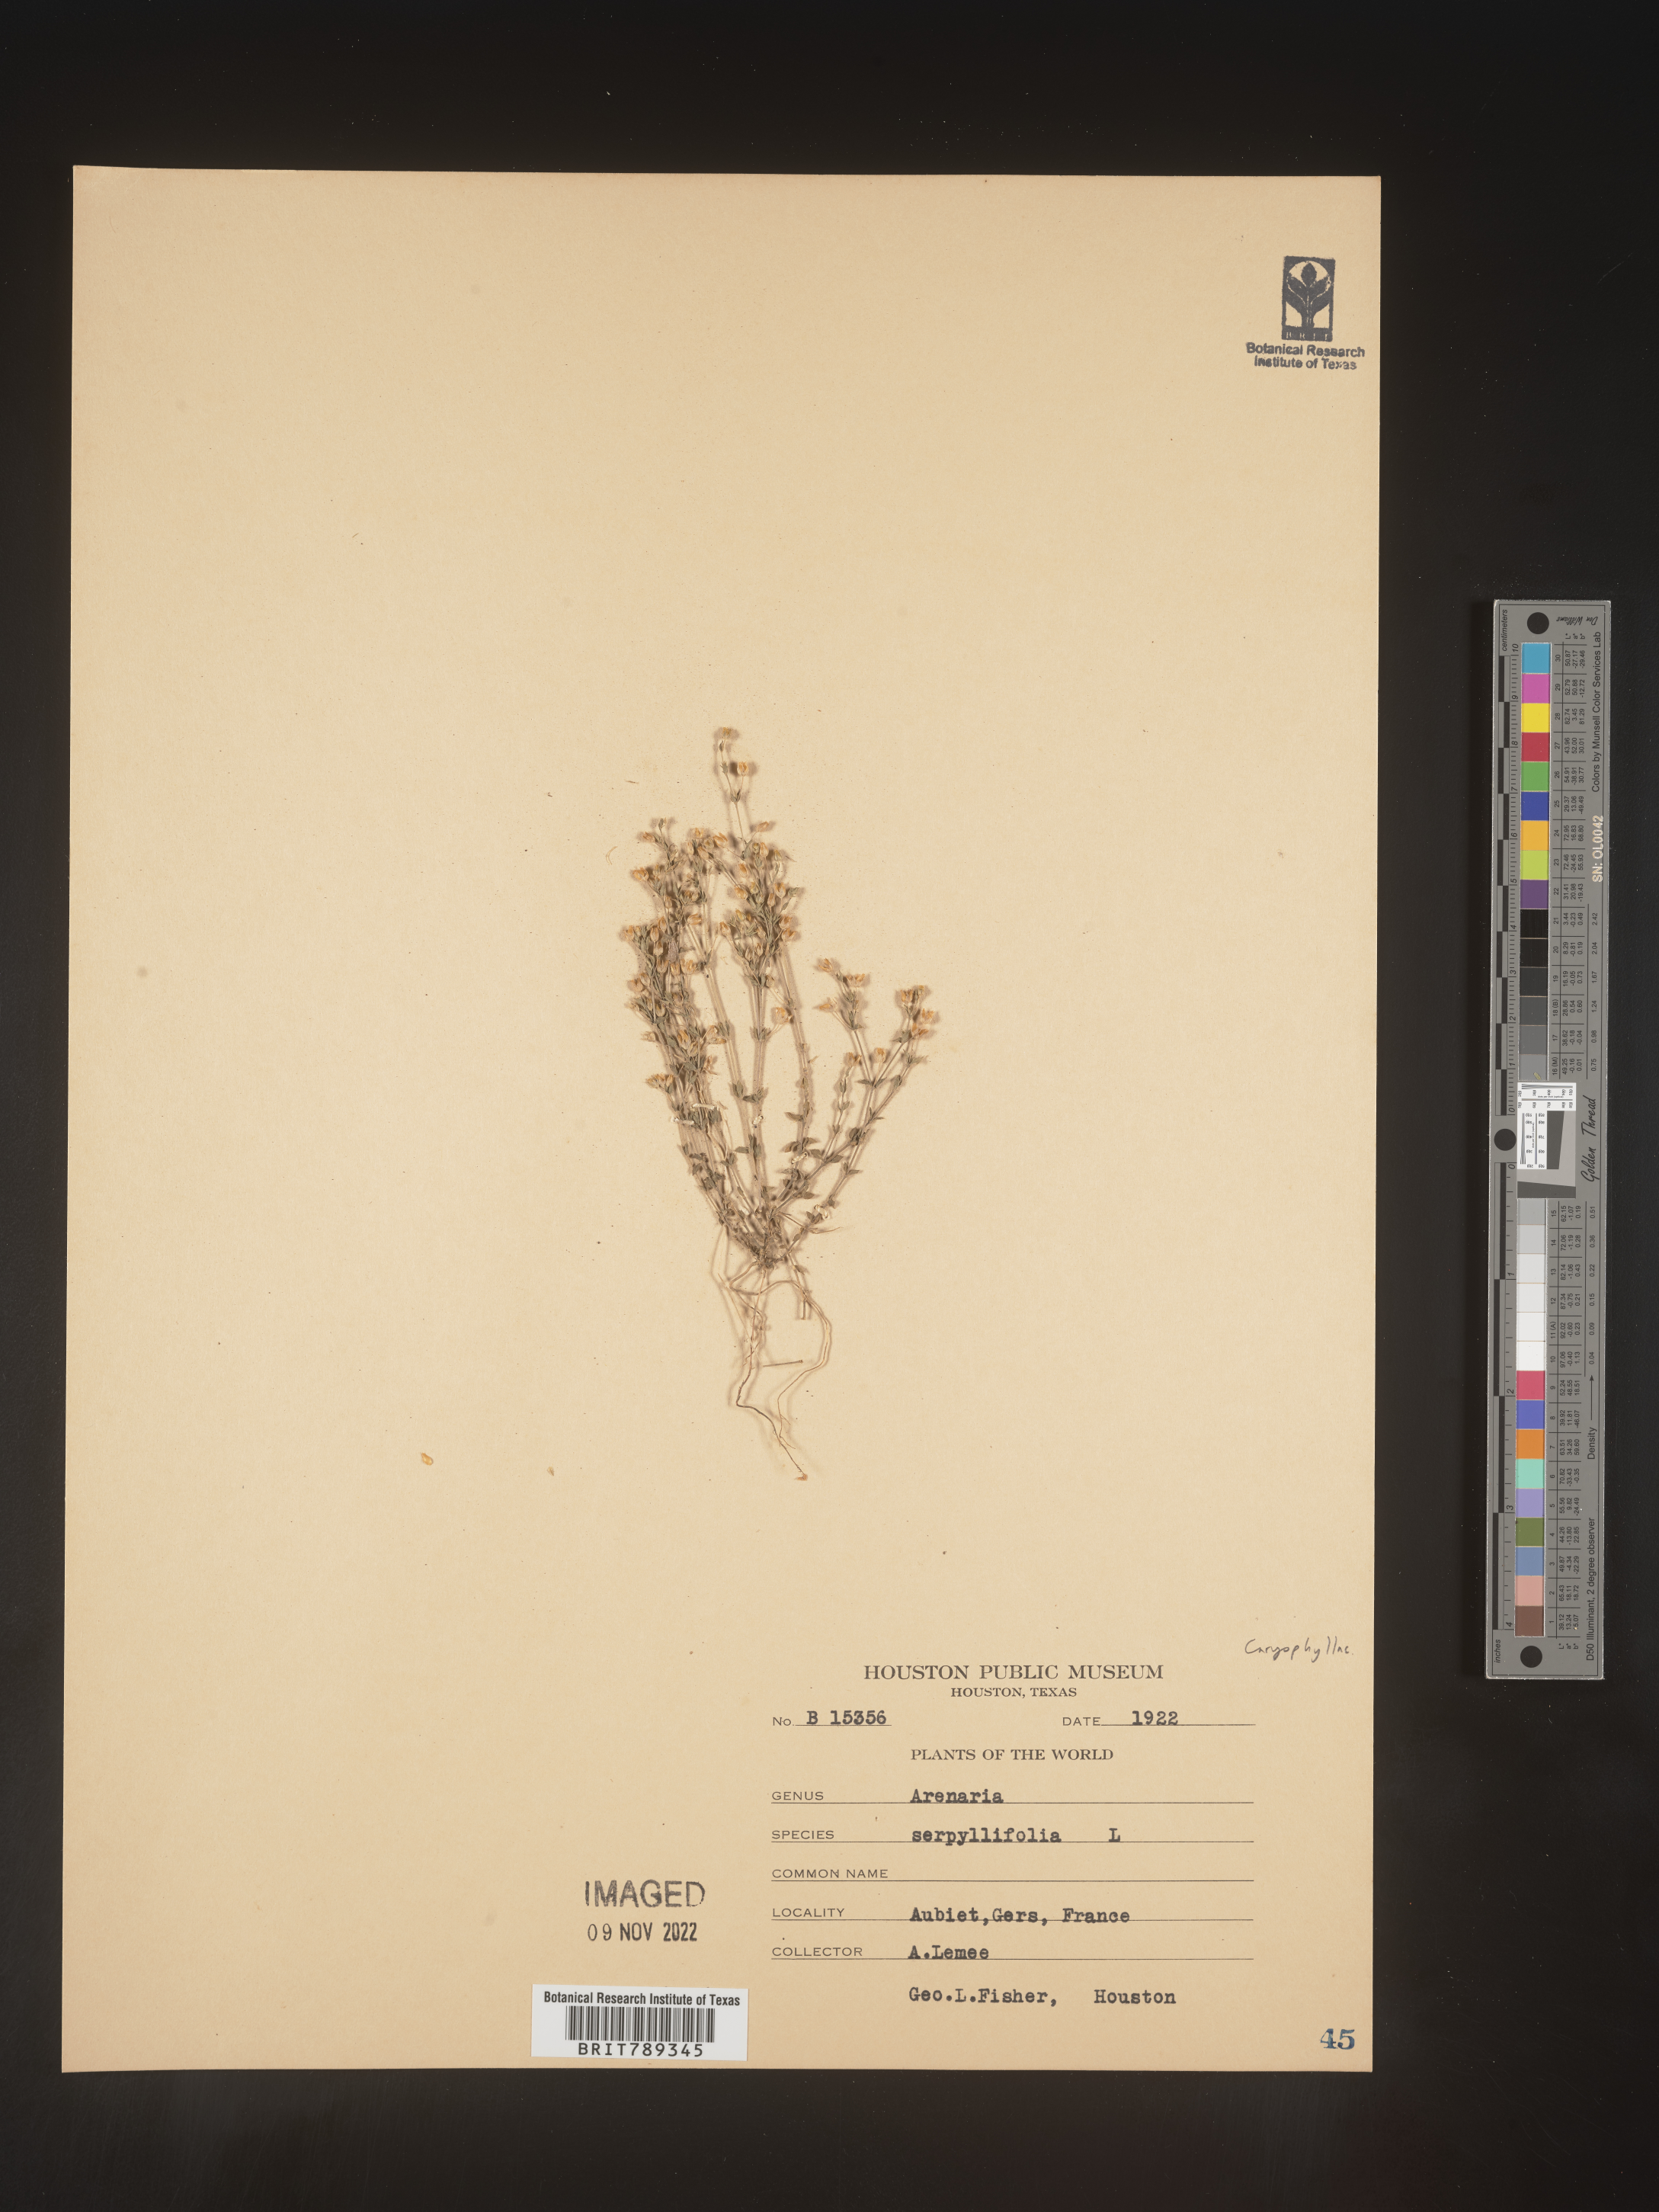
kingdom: Plantae
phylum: Tracheophyta
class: Magnoliopsida
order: Caryophyllales
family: Caryophyllaceae
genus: Arenaria
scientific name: Arenaria
